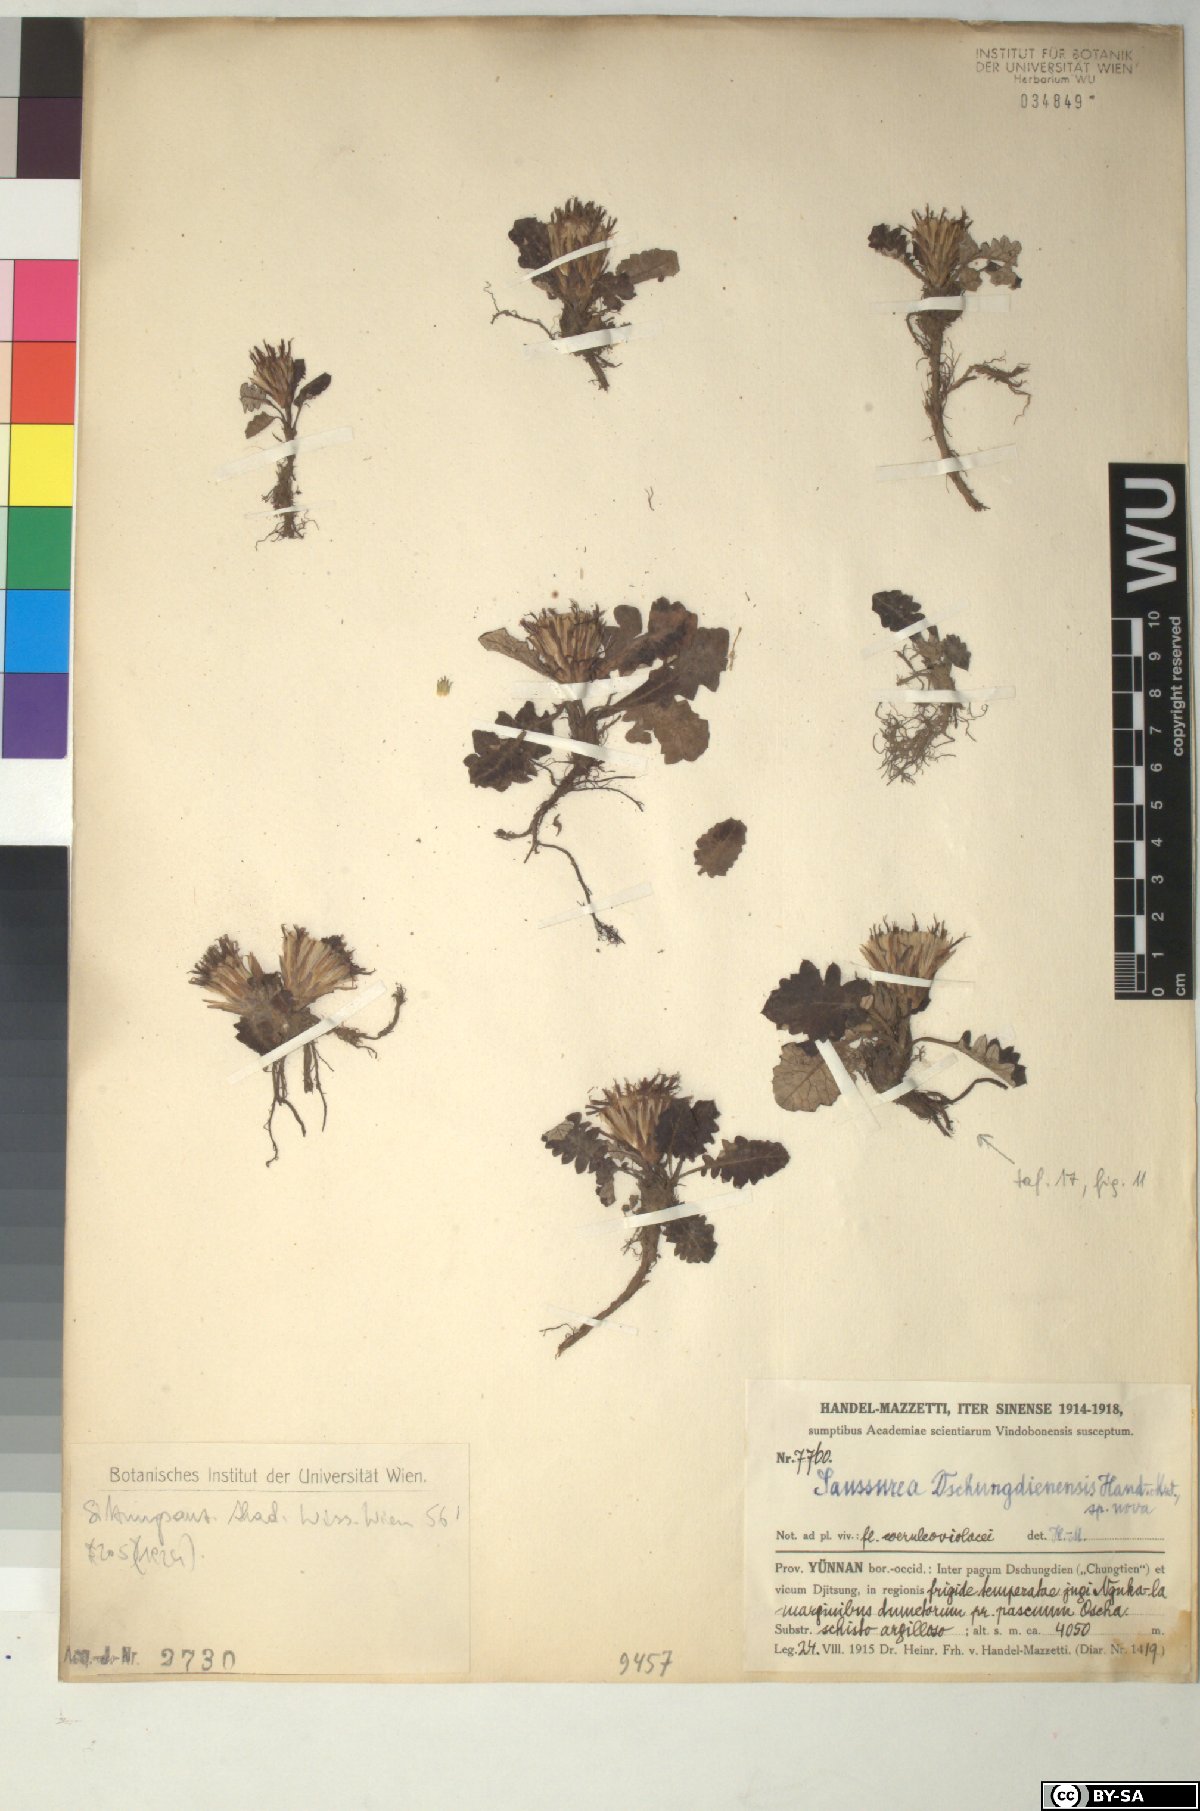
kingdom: Plantae
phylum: Tracheophyta
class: Magnoliopsida
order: Asterales
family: Asteraceae
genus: Saussurea
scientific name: Saussurea dschungdienensis
